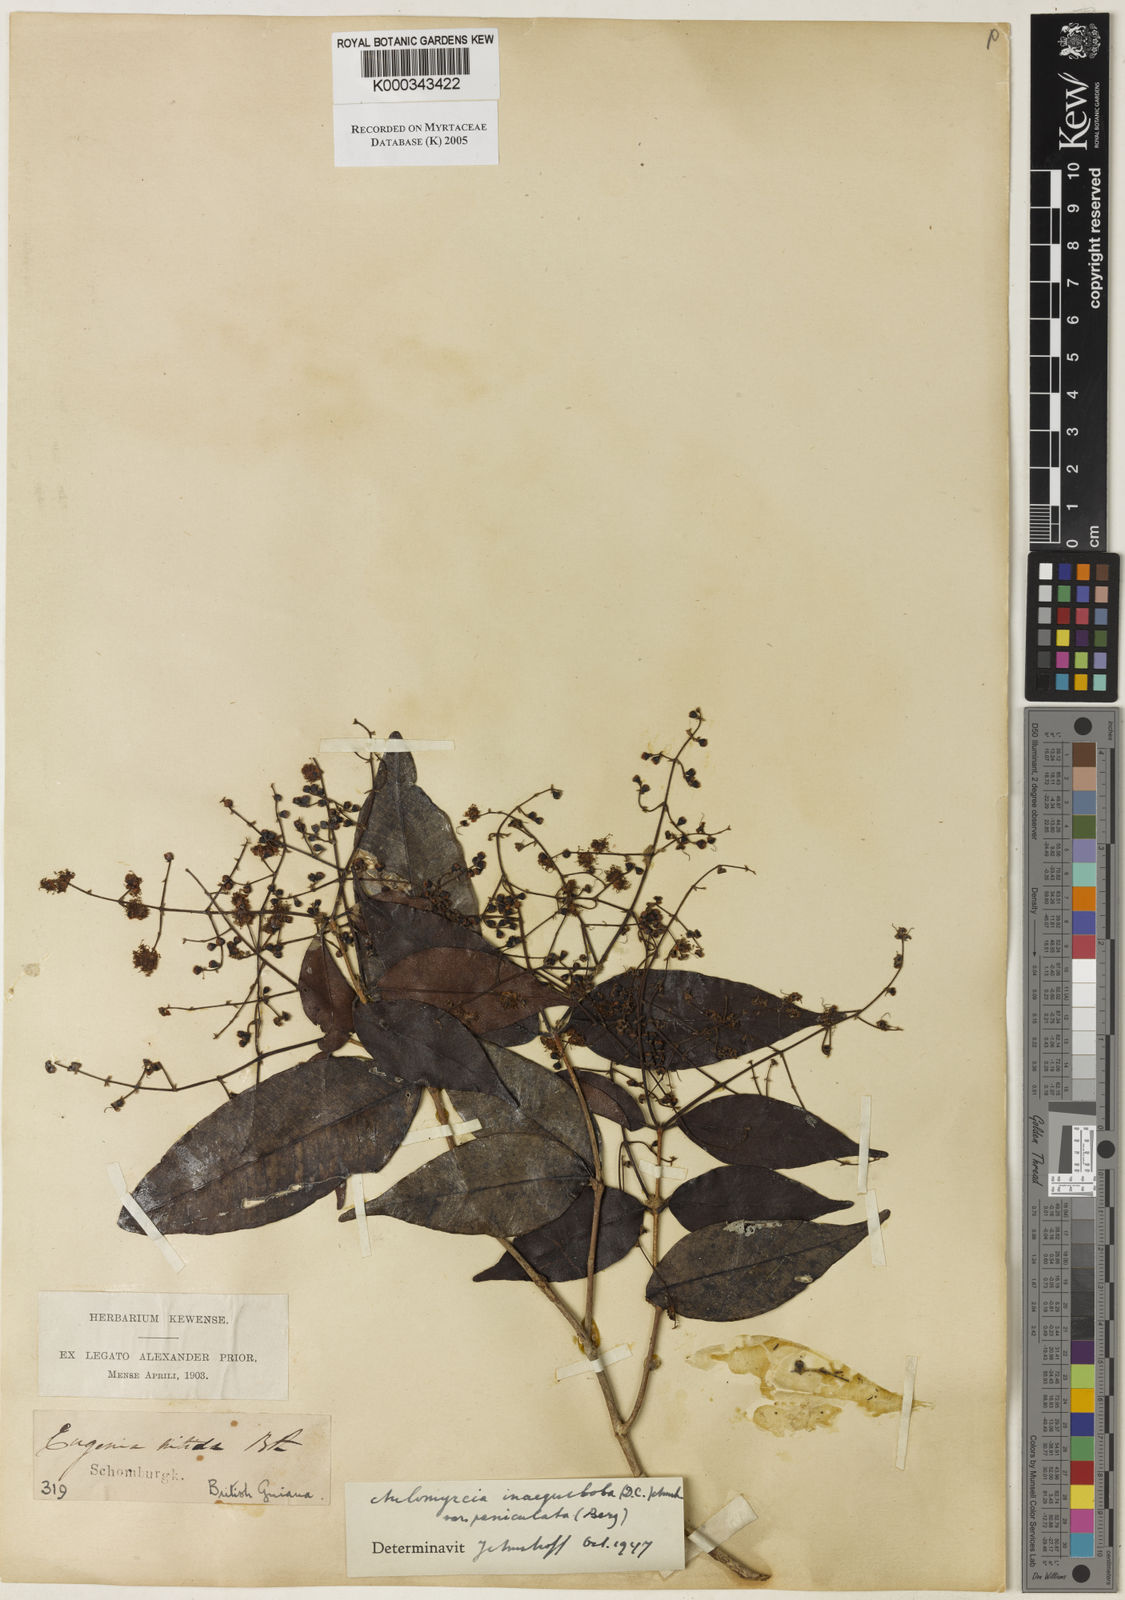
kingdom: Plantae
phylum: Tracheophyta
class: Magnoliopsida
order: Myrtales
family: Myrtaceae
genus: Myrcia
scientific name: Myrcia
